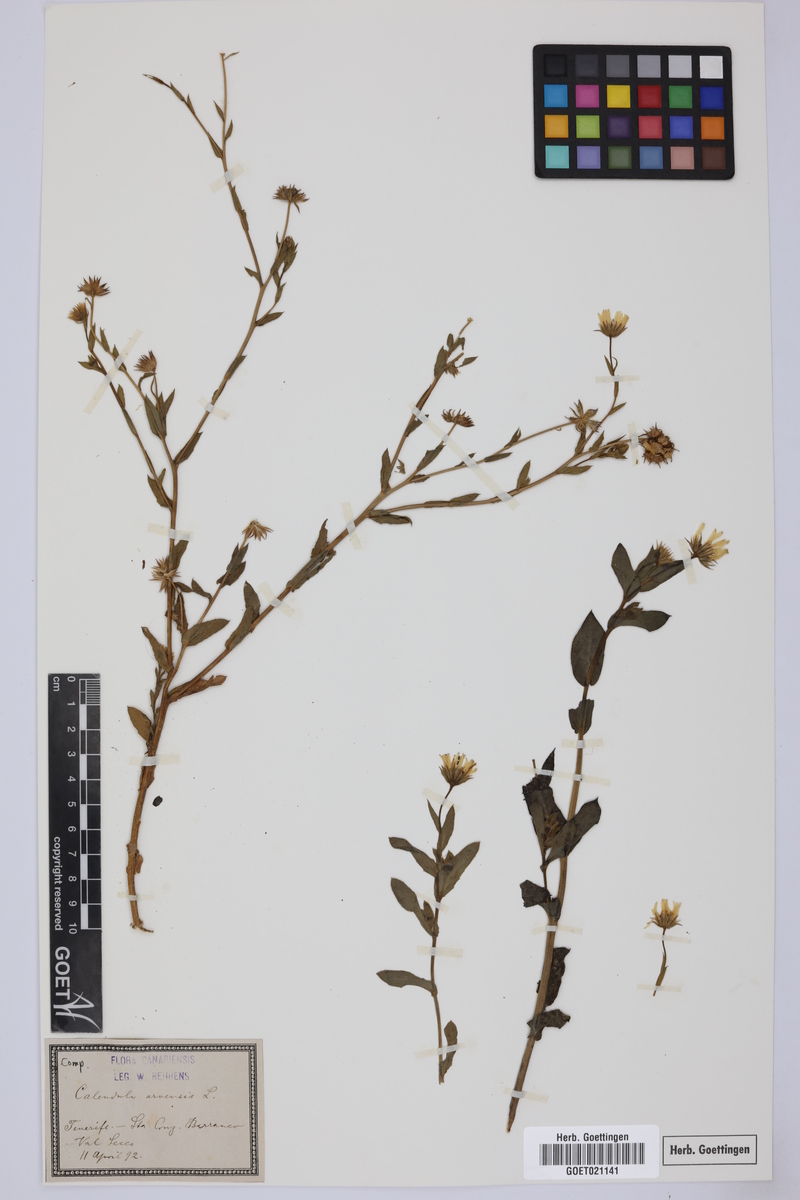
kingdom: Plantae
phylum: Tracheophyta
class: Magnoliopsida
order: Asterales
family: Asteraceae
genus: Calendula
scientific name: Calendula arvensis
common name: Field marigold
